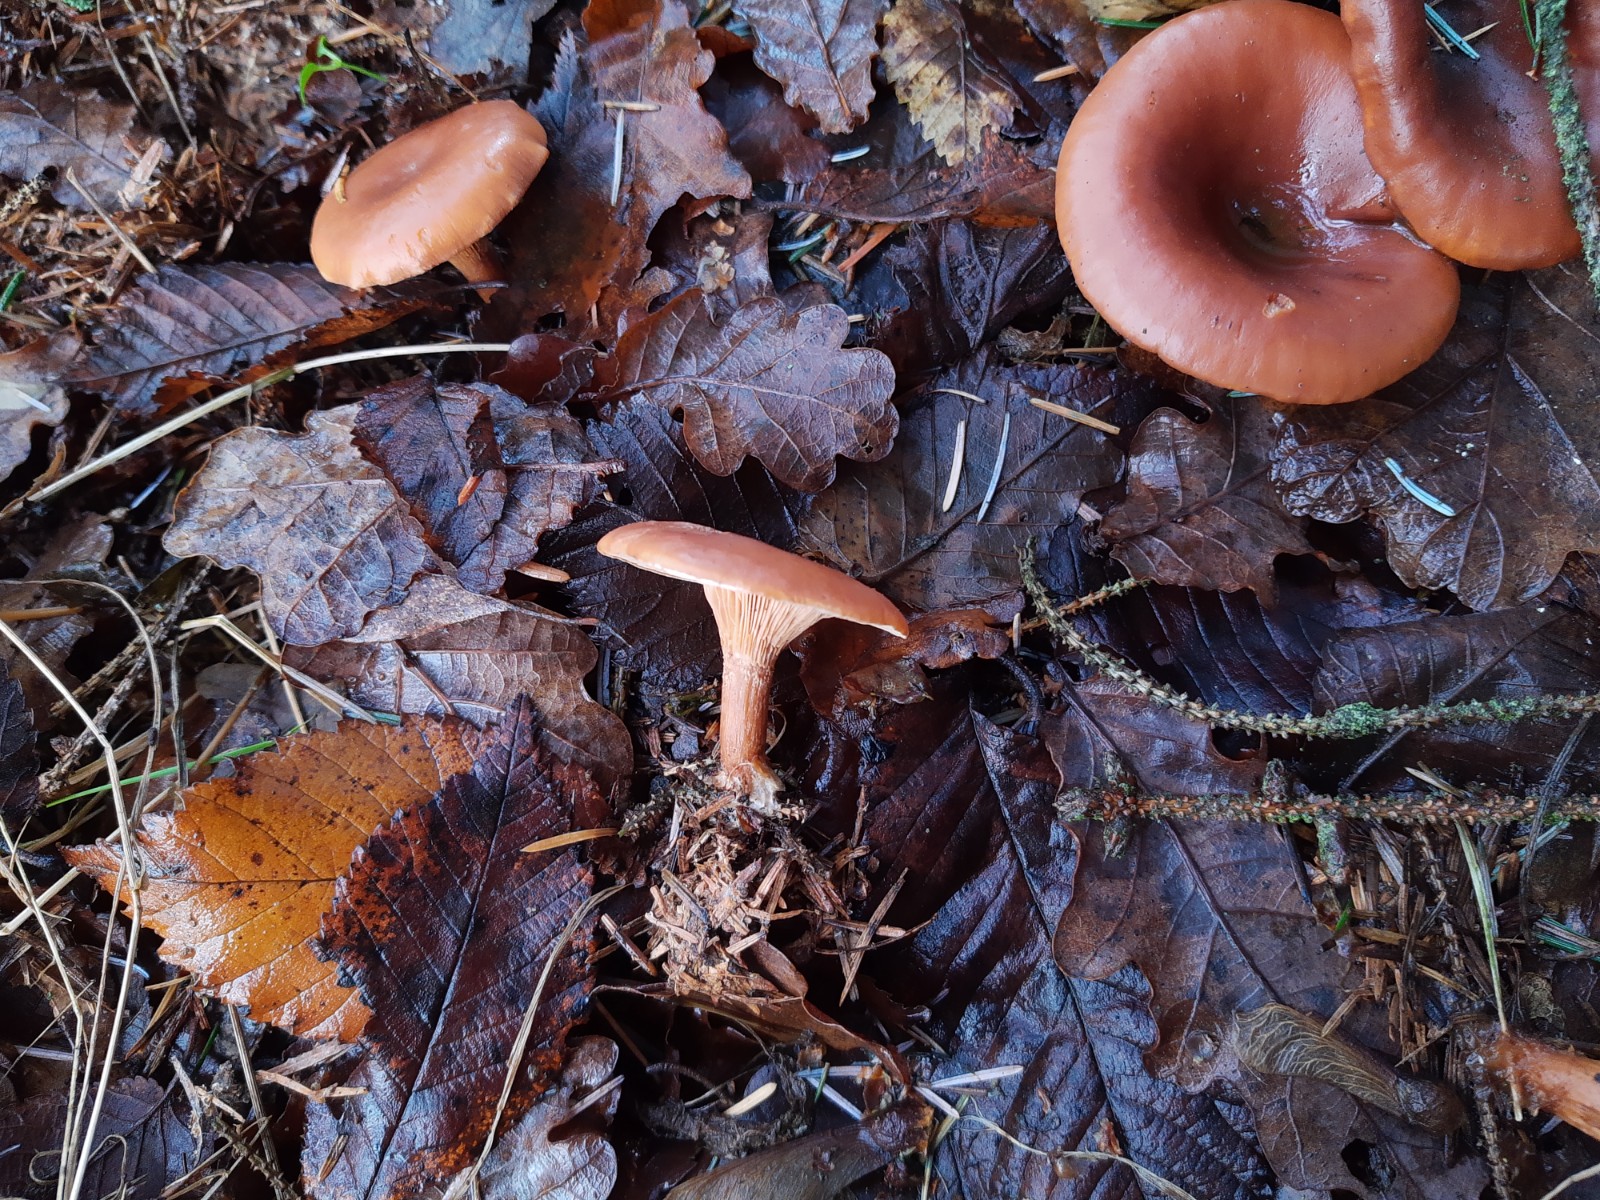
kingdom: Fungi
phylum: Basidiomycota
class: Agaricomycetes
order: Agaricales
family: Tricholomataceae
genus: Paralepista
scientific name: Paralepista flaccida
